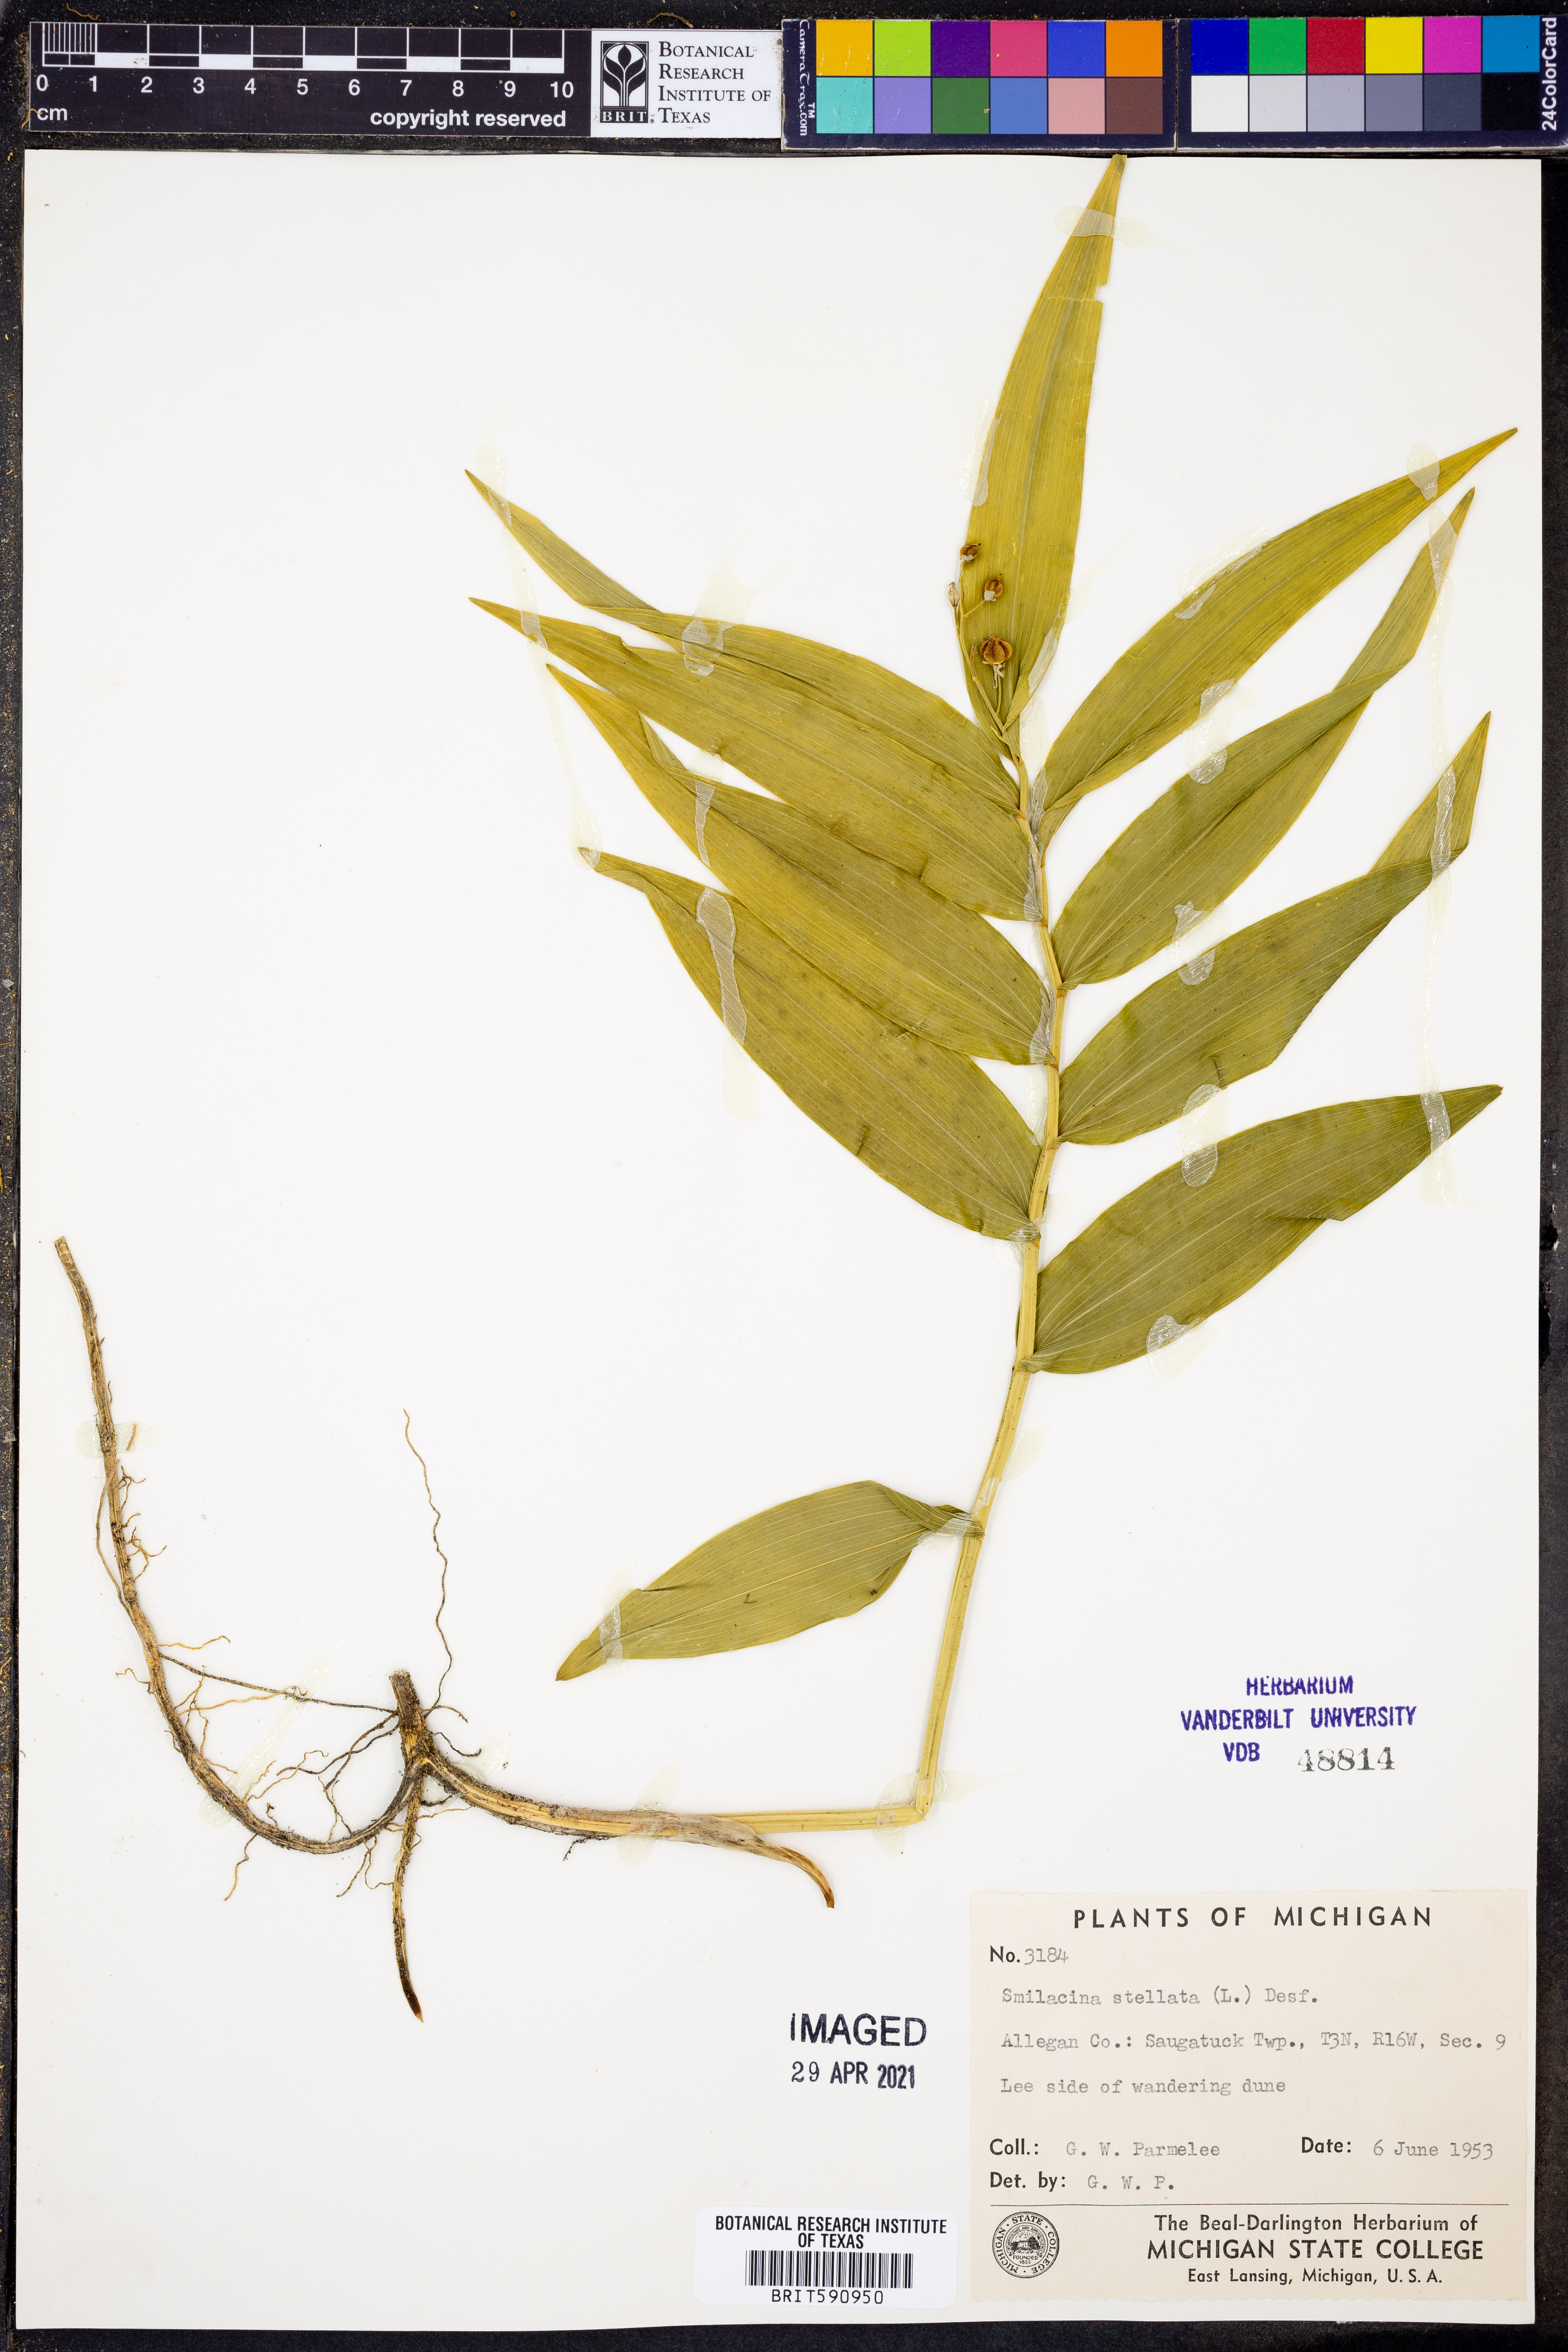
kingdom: Plantae
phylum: Tracheophyta
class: Liliopsida
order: Asparagales
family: Asparagaceae
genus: Maianthemum
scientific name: Maianthemum stellatum
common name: Little false solomon's seal
